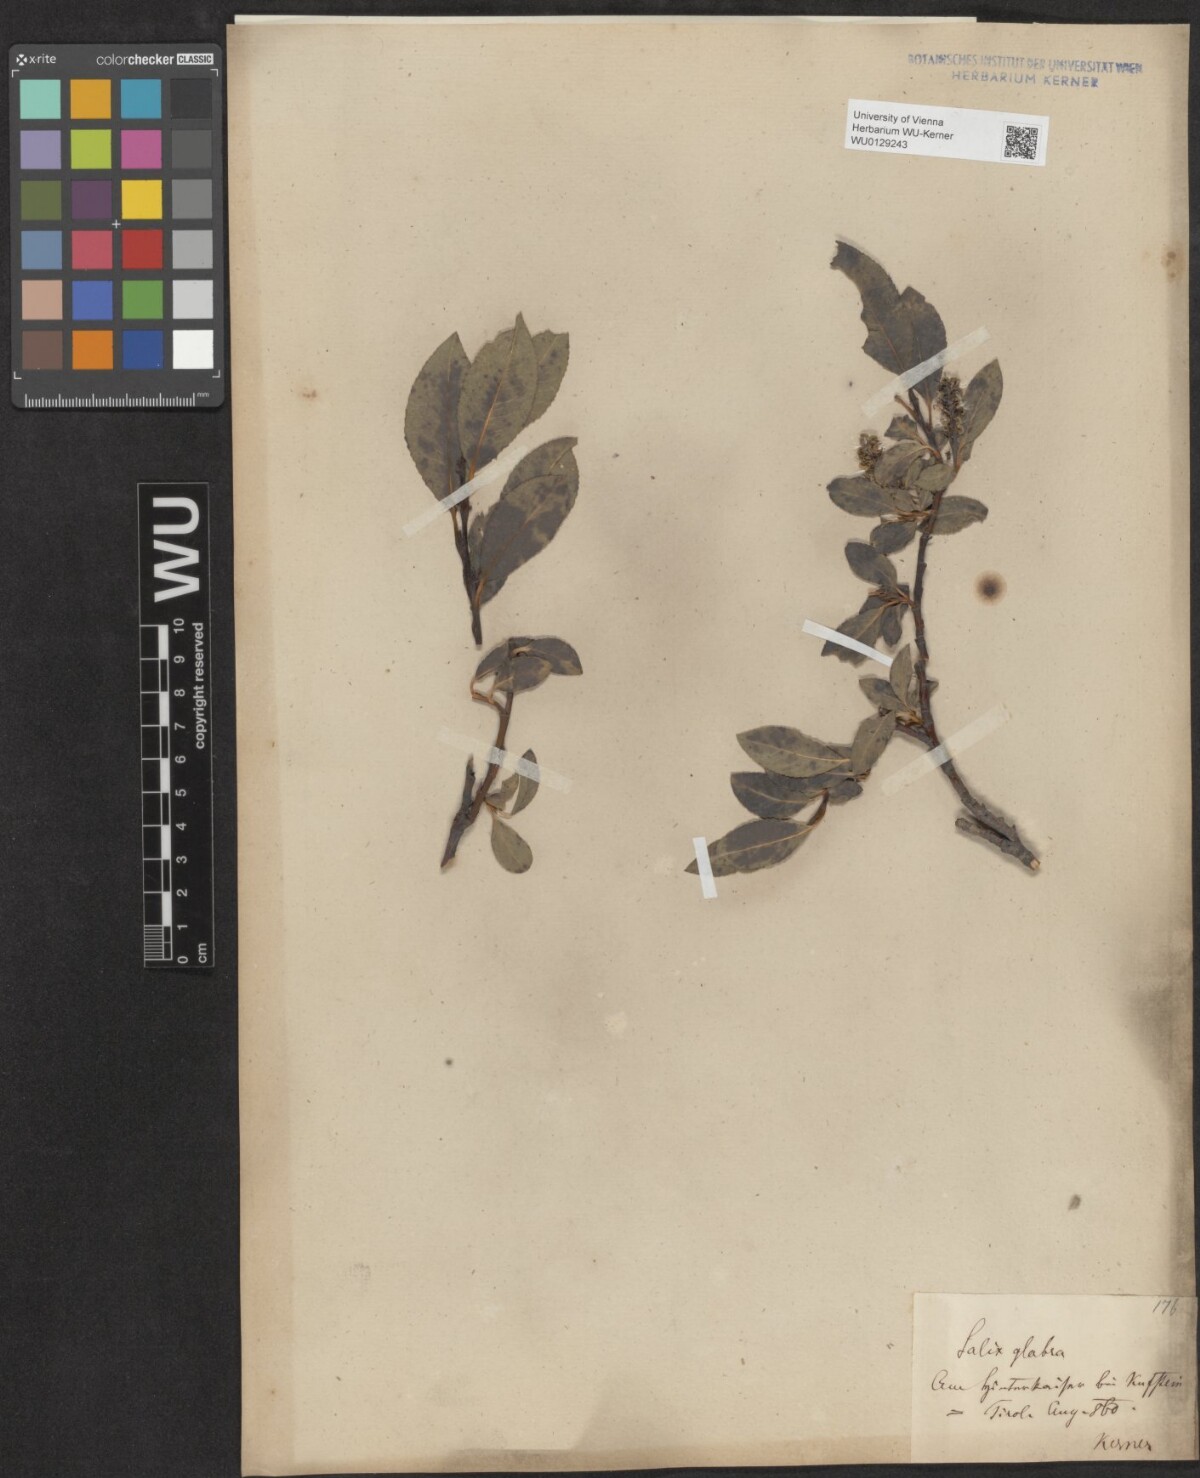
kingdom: Plantae
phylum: Tracheophyta
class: Magnoliopsida
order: Malpighiales
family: Salicaceae
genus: Salix
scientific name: Salix glabra
